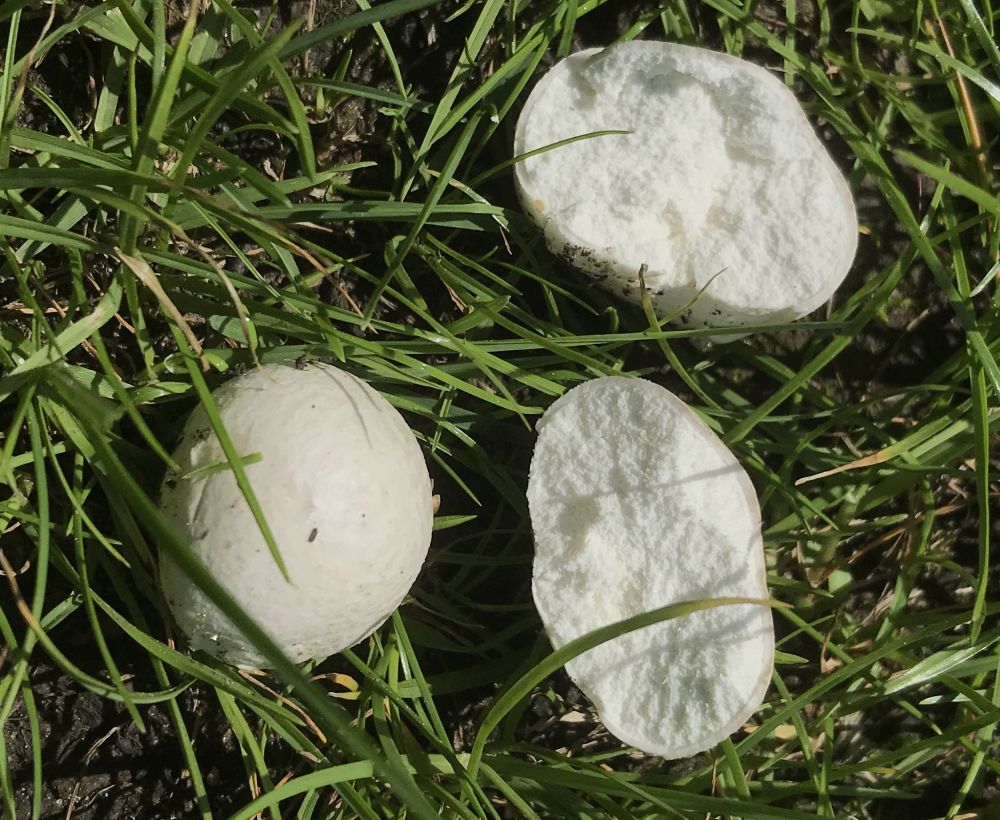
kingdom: Fungi
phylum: Basidiomycota
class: Agaricomycetes
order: Agaricales
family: Lycoperdaceae
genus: Lycoperdon
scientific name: Lycoperdon pratense
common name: flad støvbold
